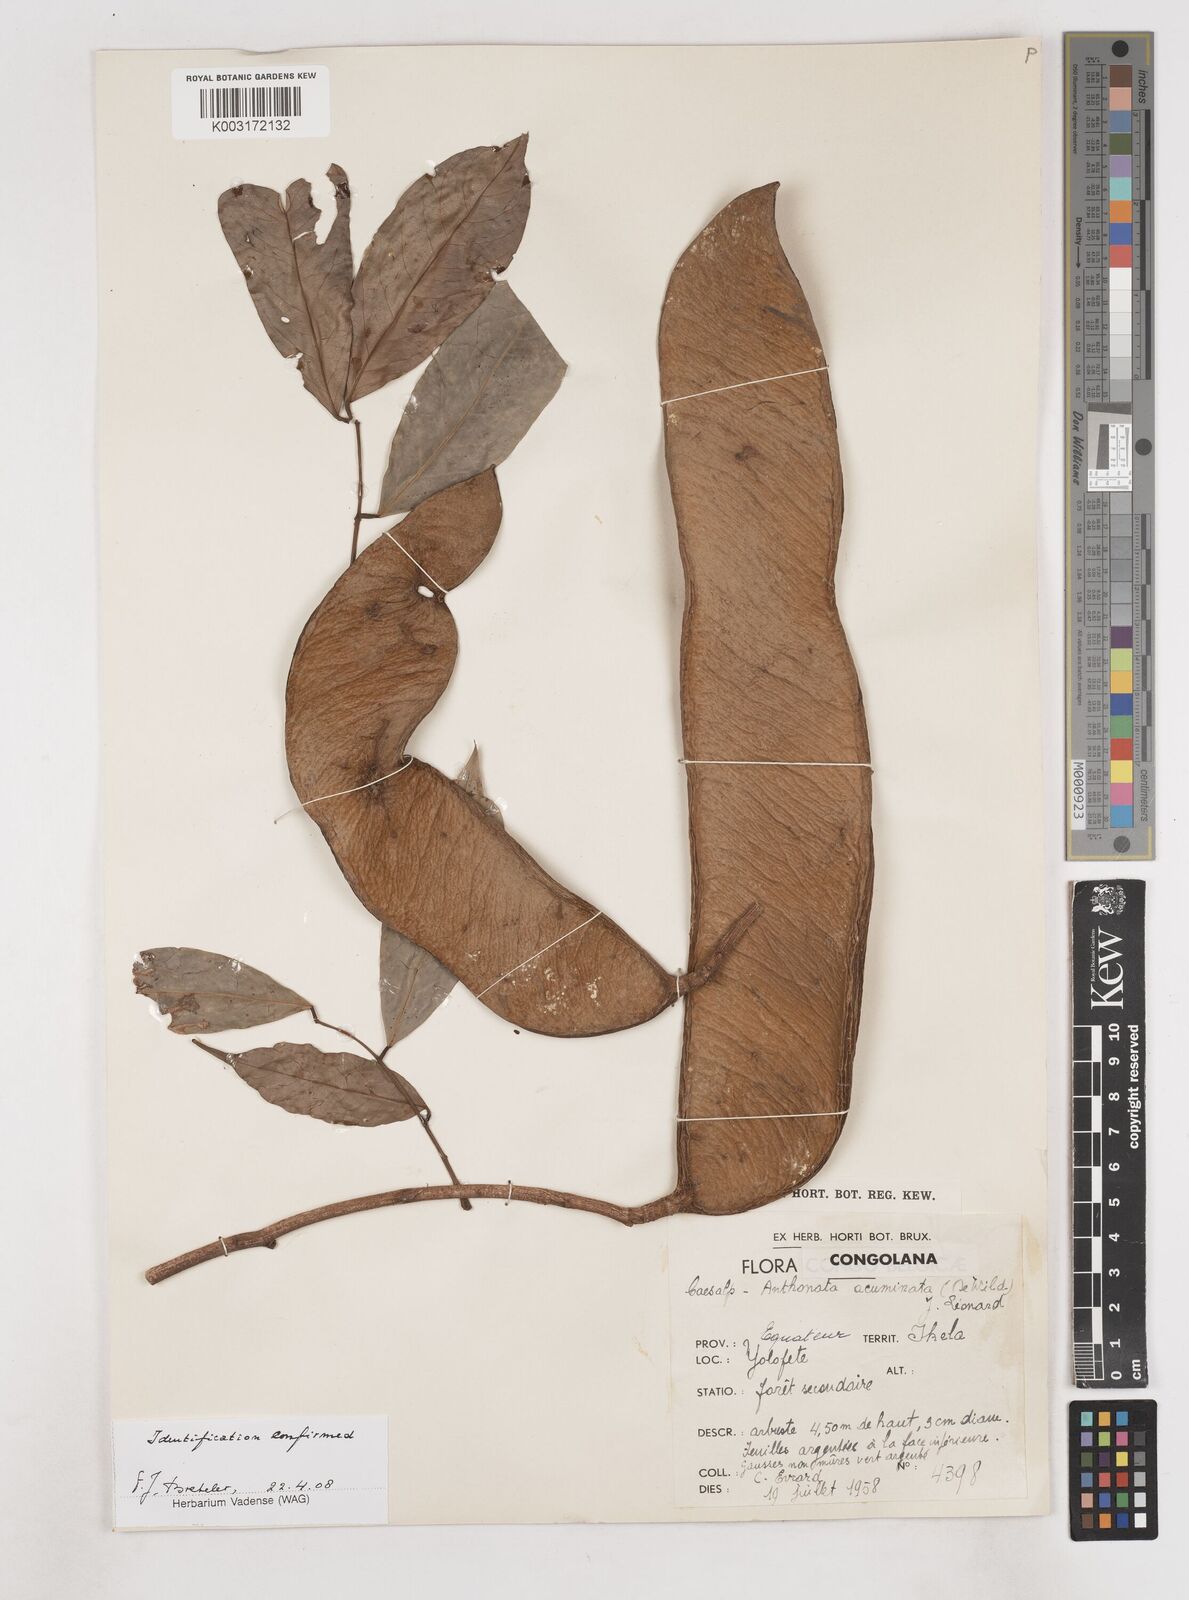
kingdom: Plantae
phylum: Tracheophyta
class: Magnoliopsida
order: Fabales
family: Fabaceae
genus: Anthonotha
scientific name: Anthonotha acuminata
